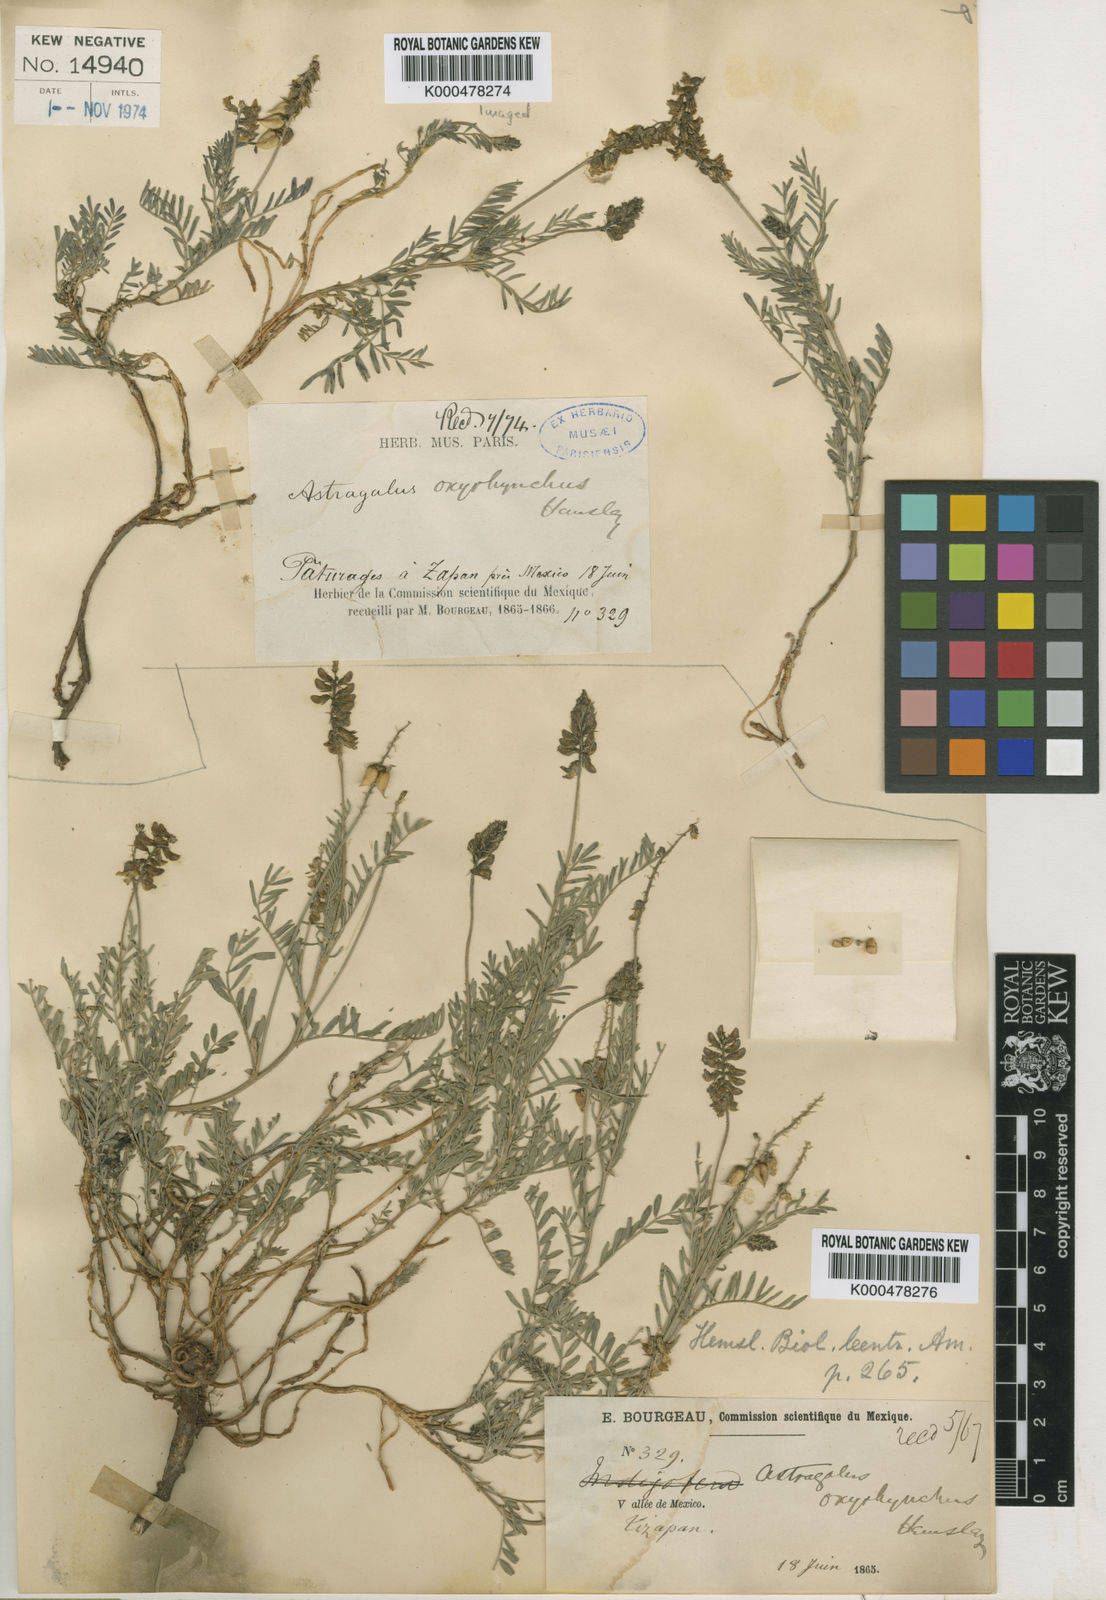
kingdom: Plantae
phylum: Tracheophyta
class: Magnoliopsida
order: Fabales
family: Fabaceae
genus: Astragalus
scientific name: Astragalus oxyrhynchus
